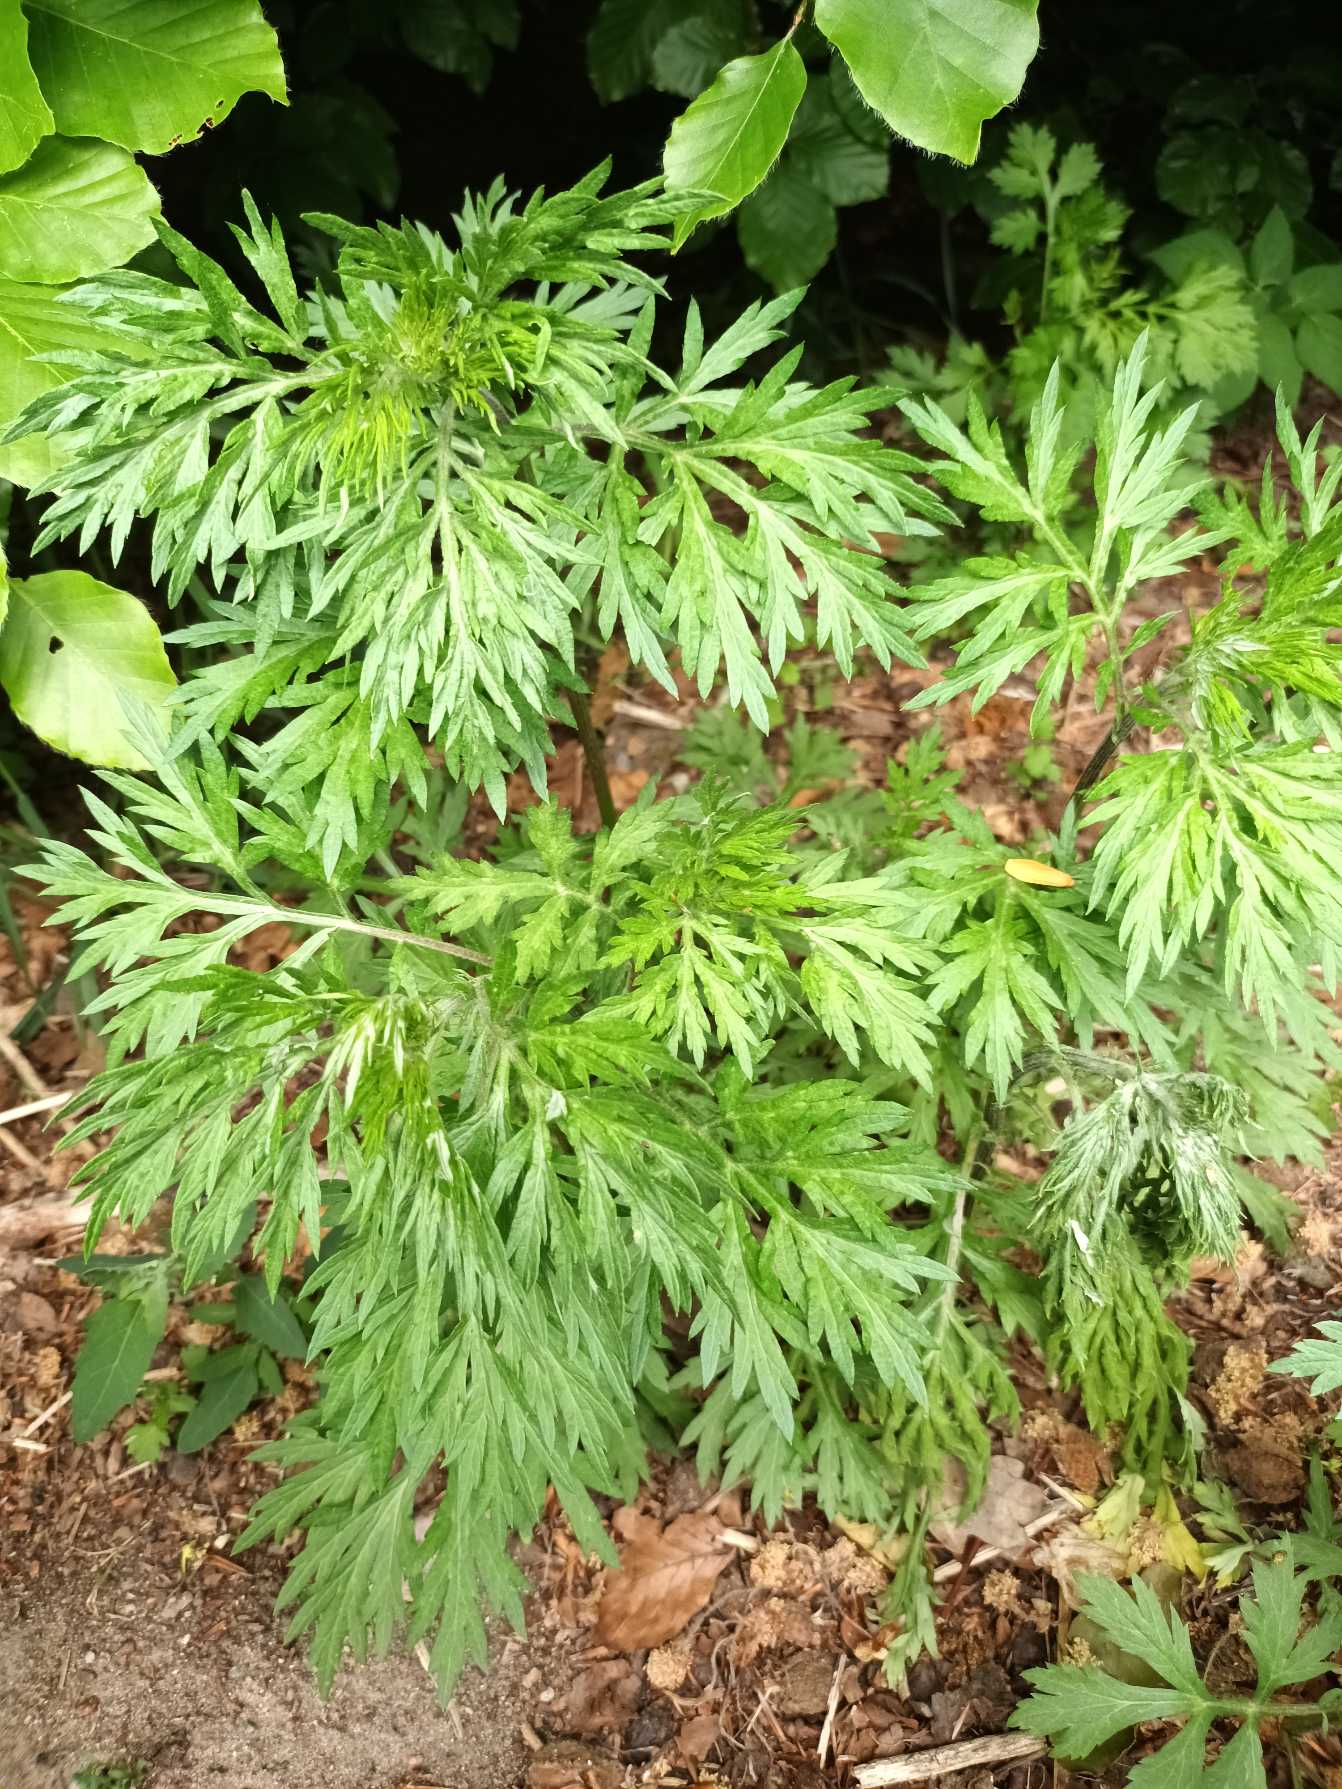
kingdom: Plantae
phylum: Tracheophyta
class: Magnoliopsida
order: Asterales
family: Asteraceae
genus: Artemisia
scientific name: Artemisia vulgaris
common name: Grå-bynke
